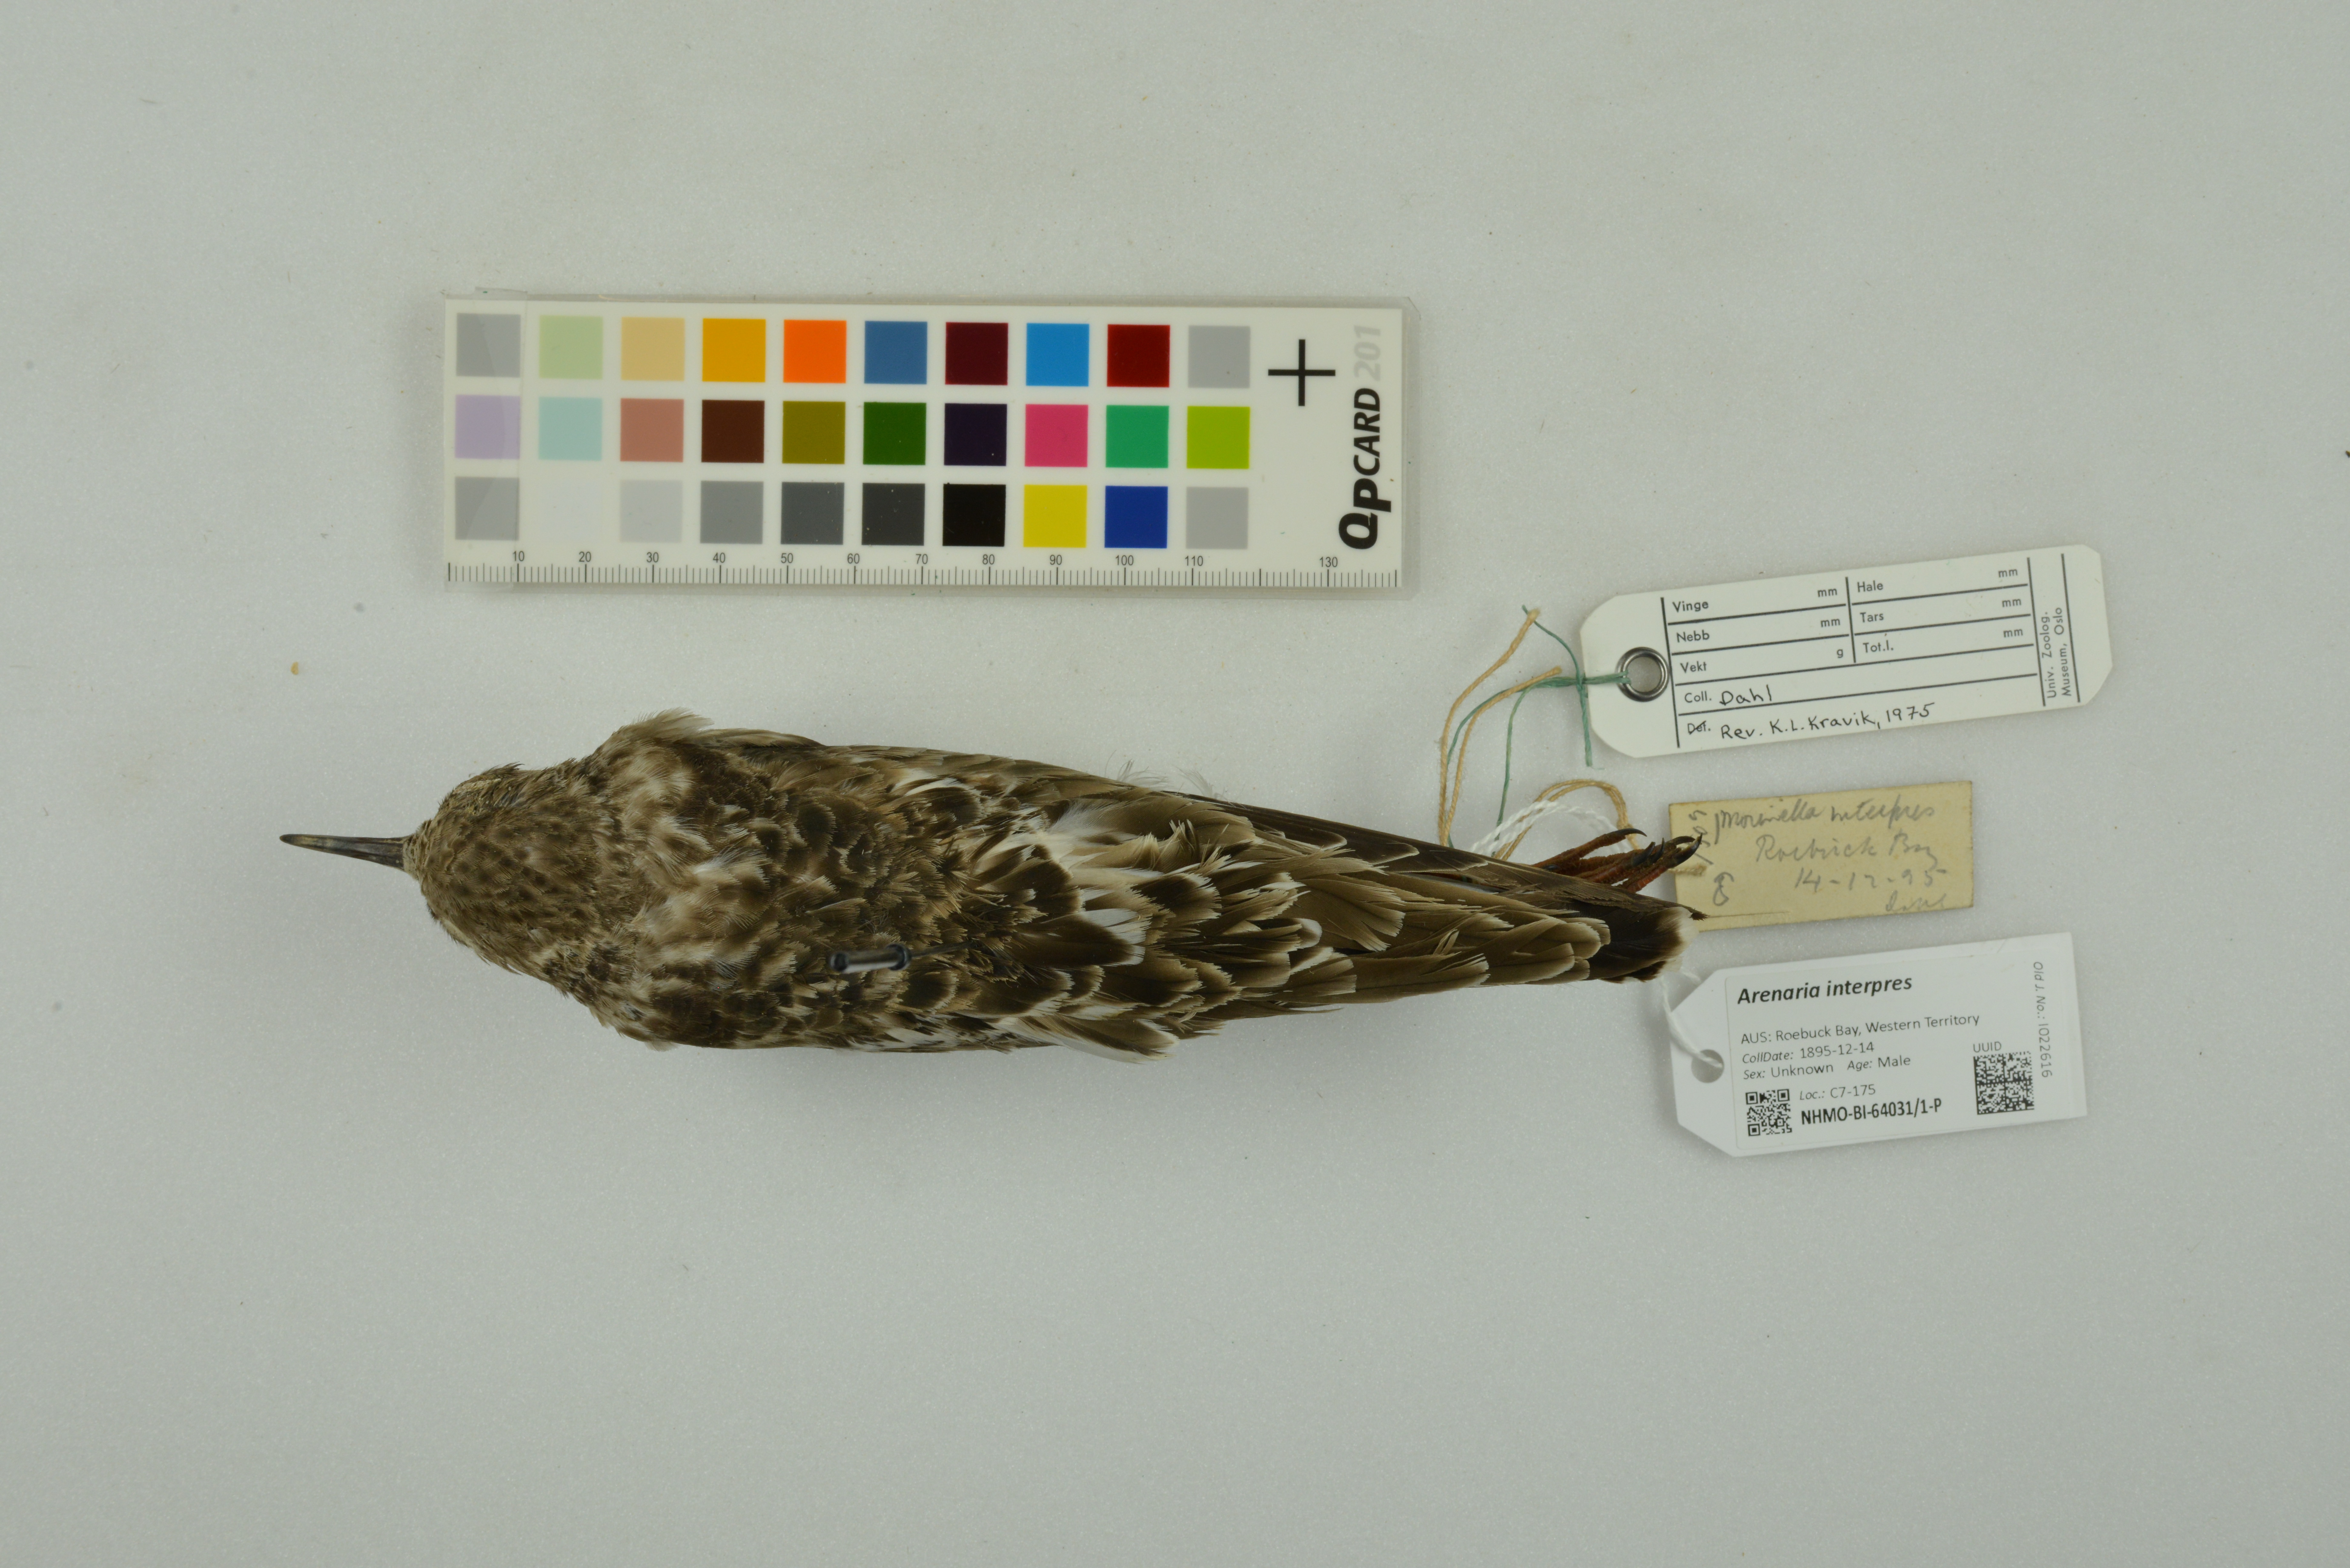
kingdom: Animalia
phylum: Chordata
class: Aves
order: Charadriiformes
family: Scolopacidae
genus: Arenaria
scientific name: Arenaria interpres
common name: Ruddy turnstone
